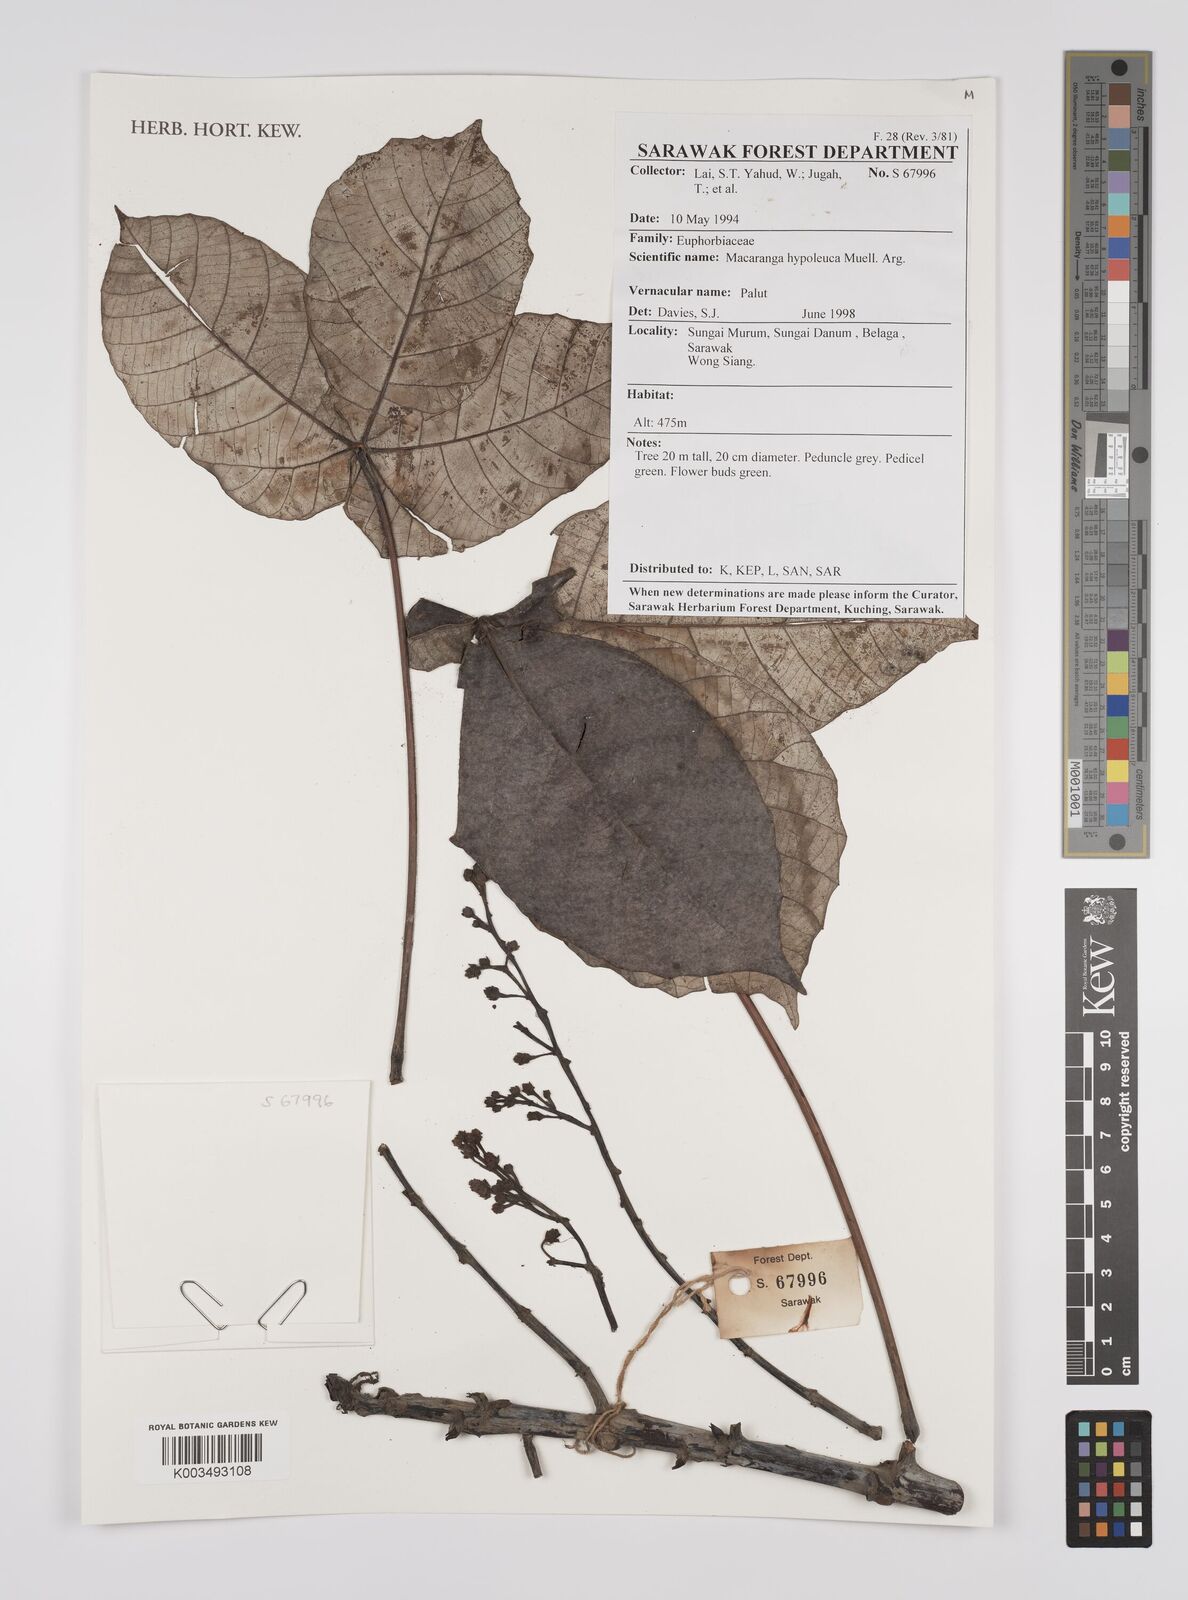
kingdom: Plantae
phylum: Tracheophyta
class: Magnoliopsida
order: Malpighiales
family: Euphorbiaceae
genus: Macaranga
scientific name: Macaranga hypoleuca
